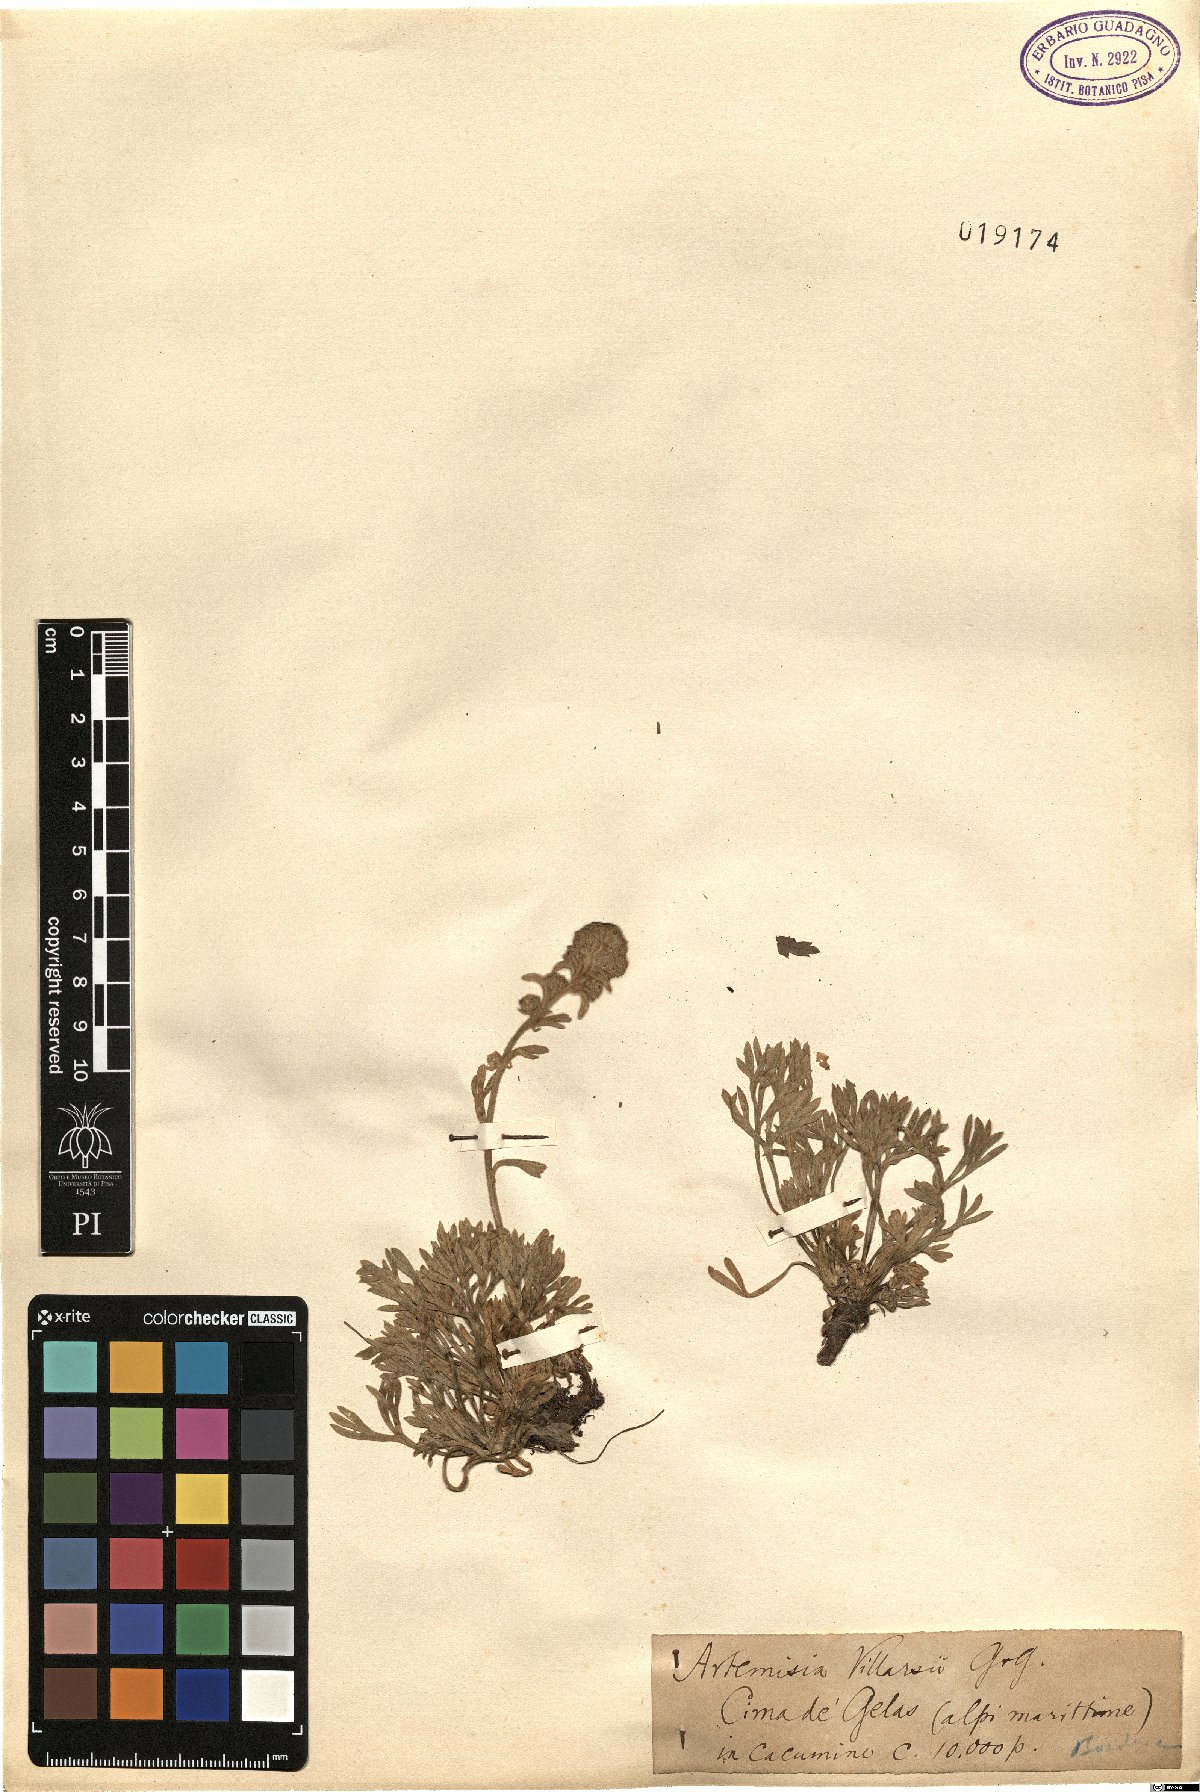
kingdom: Plantae
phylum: Tracheophyta
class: Magnoliopsida
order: Asterales
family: Asteraceae
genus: Artemisia
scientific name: Artemisia eriantha
